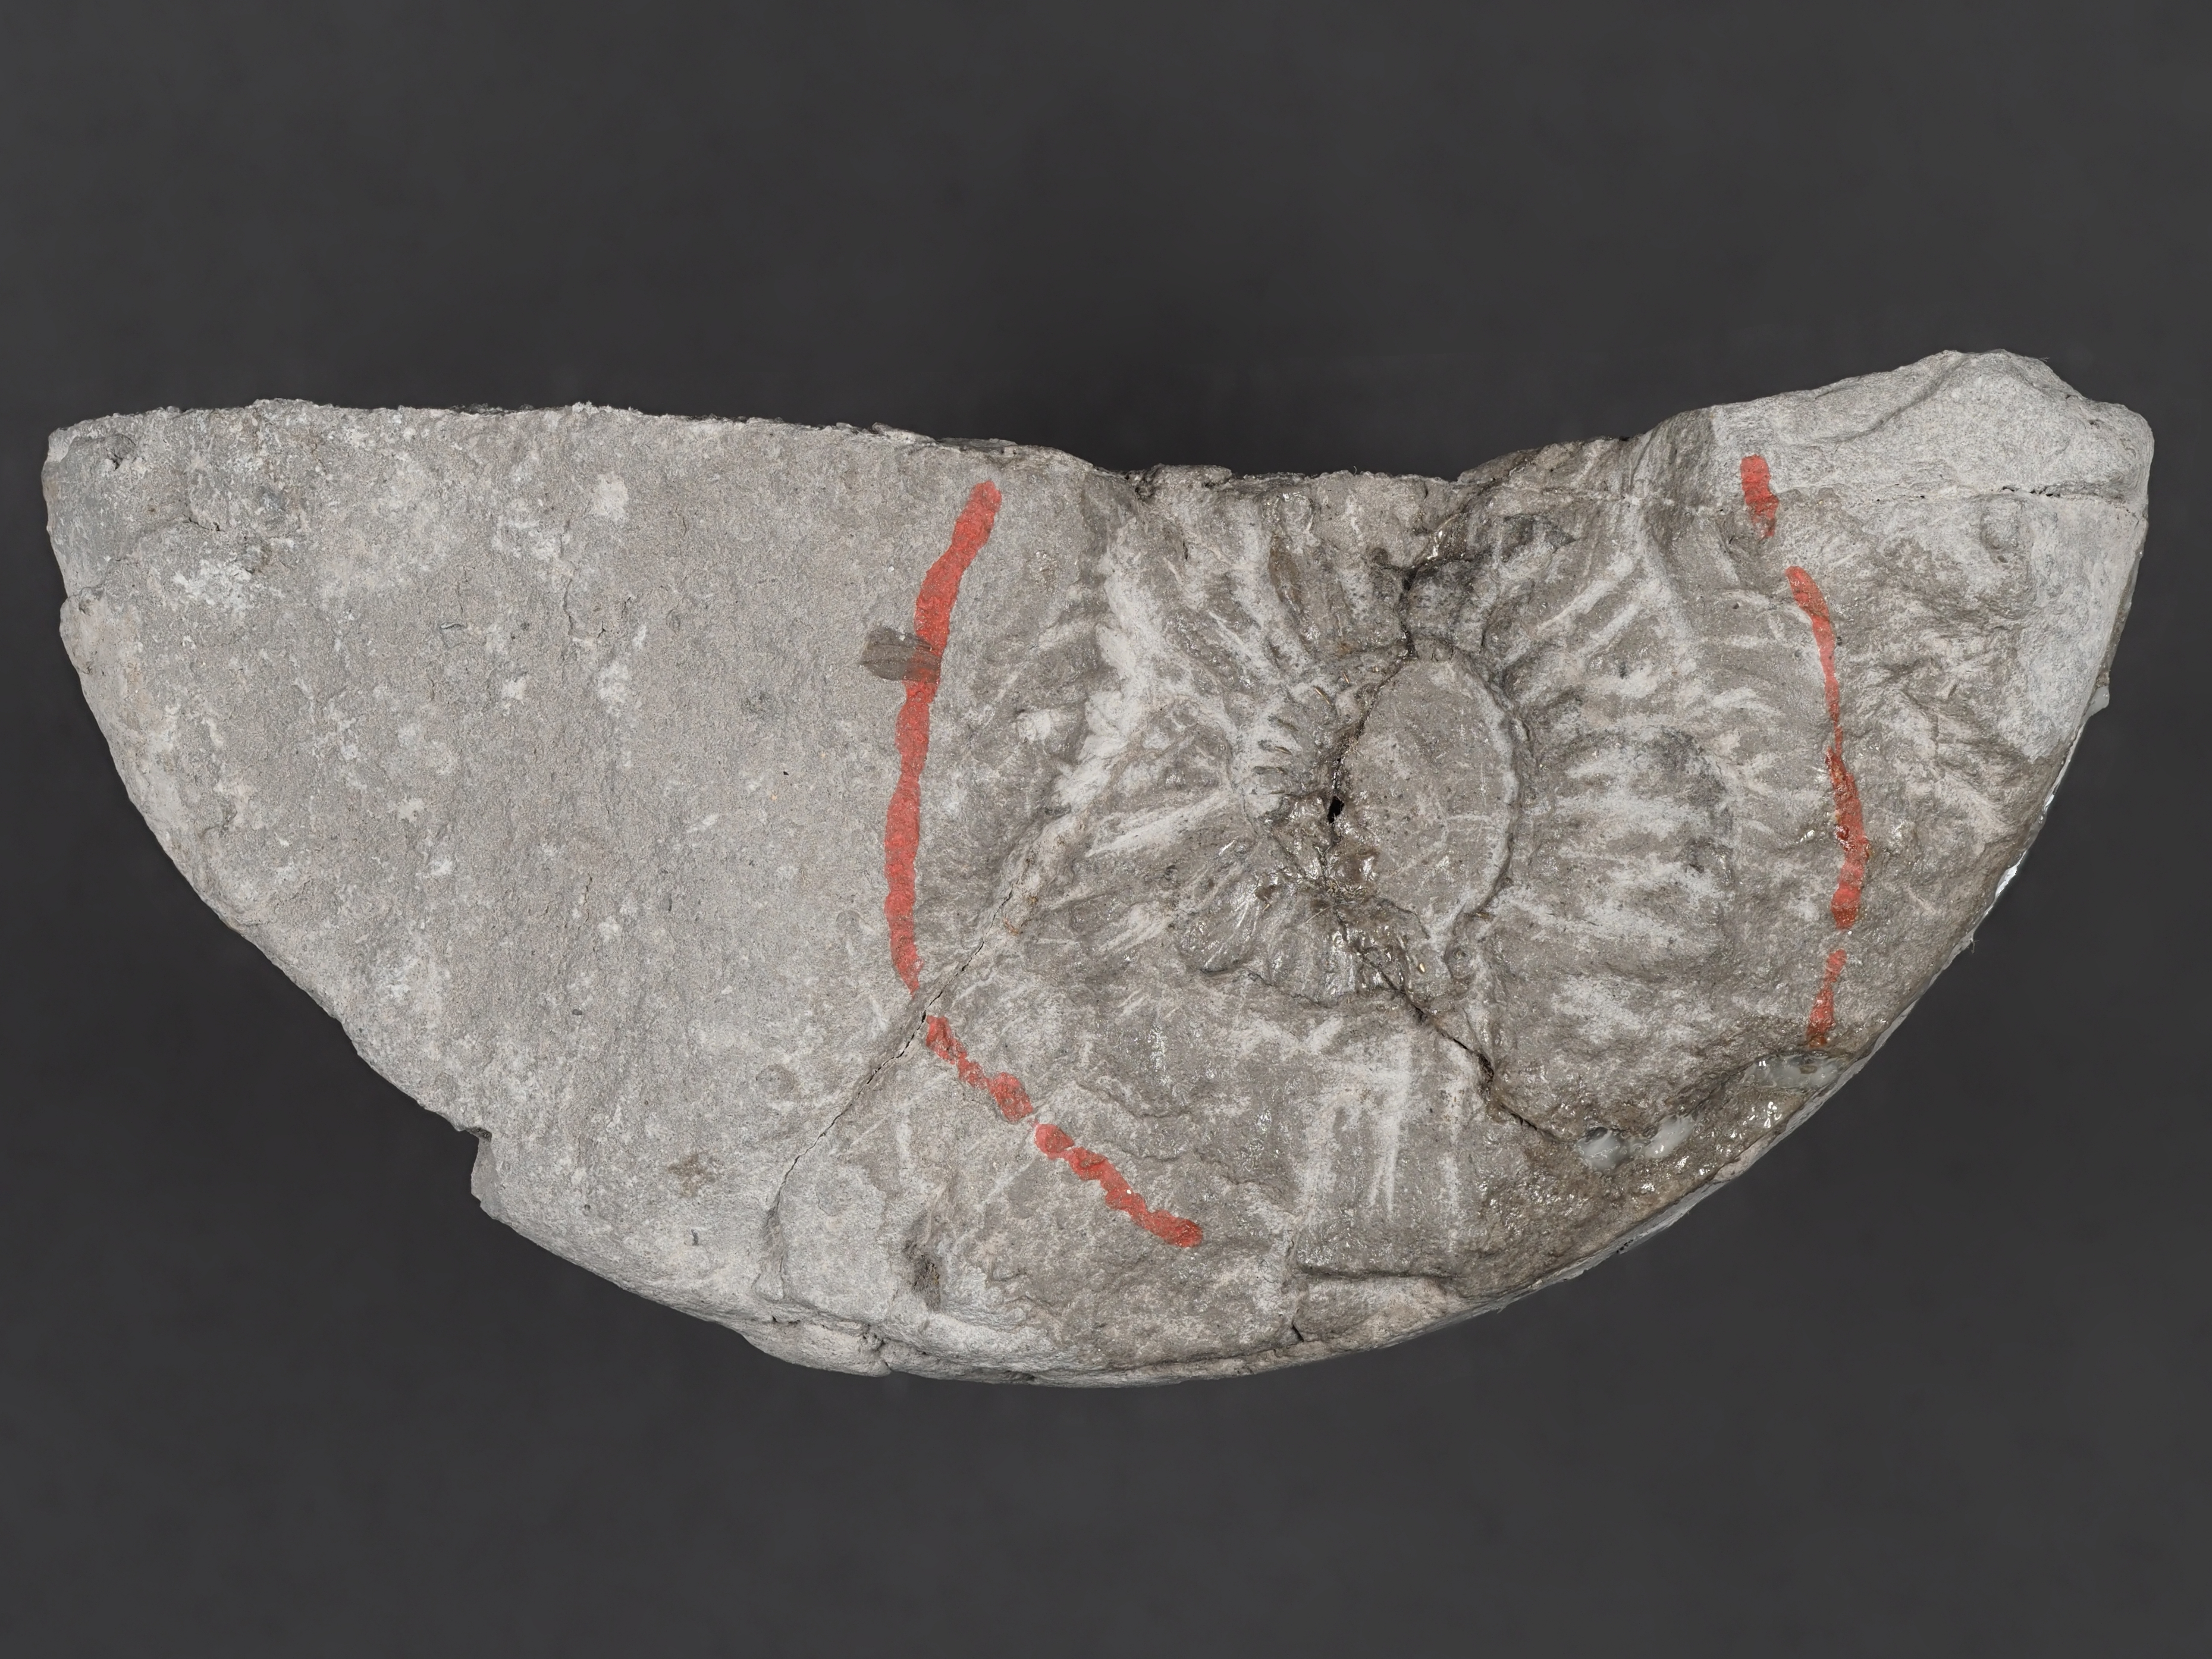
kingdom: Animalia
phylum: Mollusca
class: Cephalopoda
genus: Ammonites
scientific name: Ammonites angulatus
